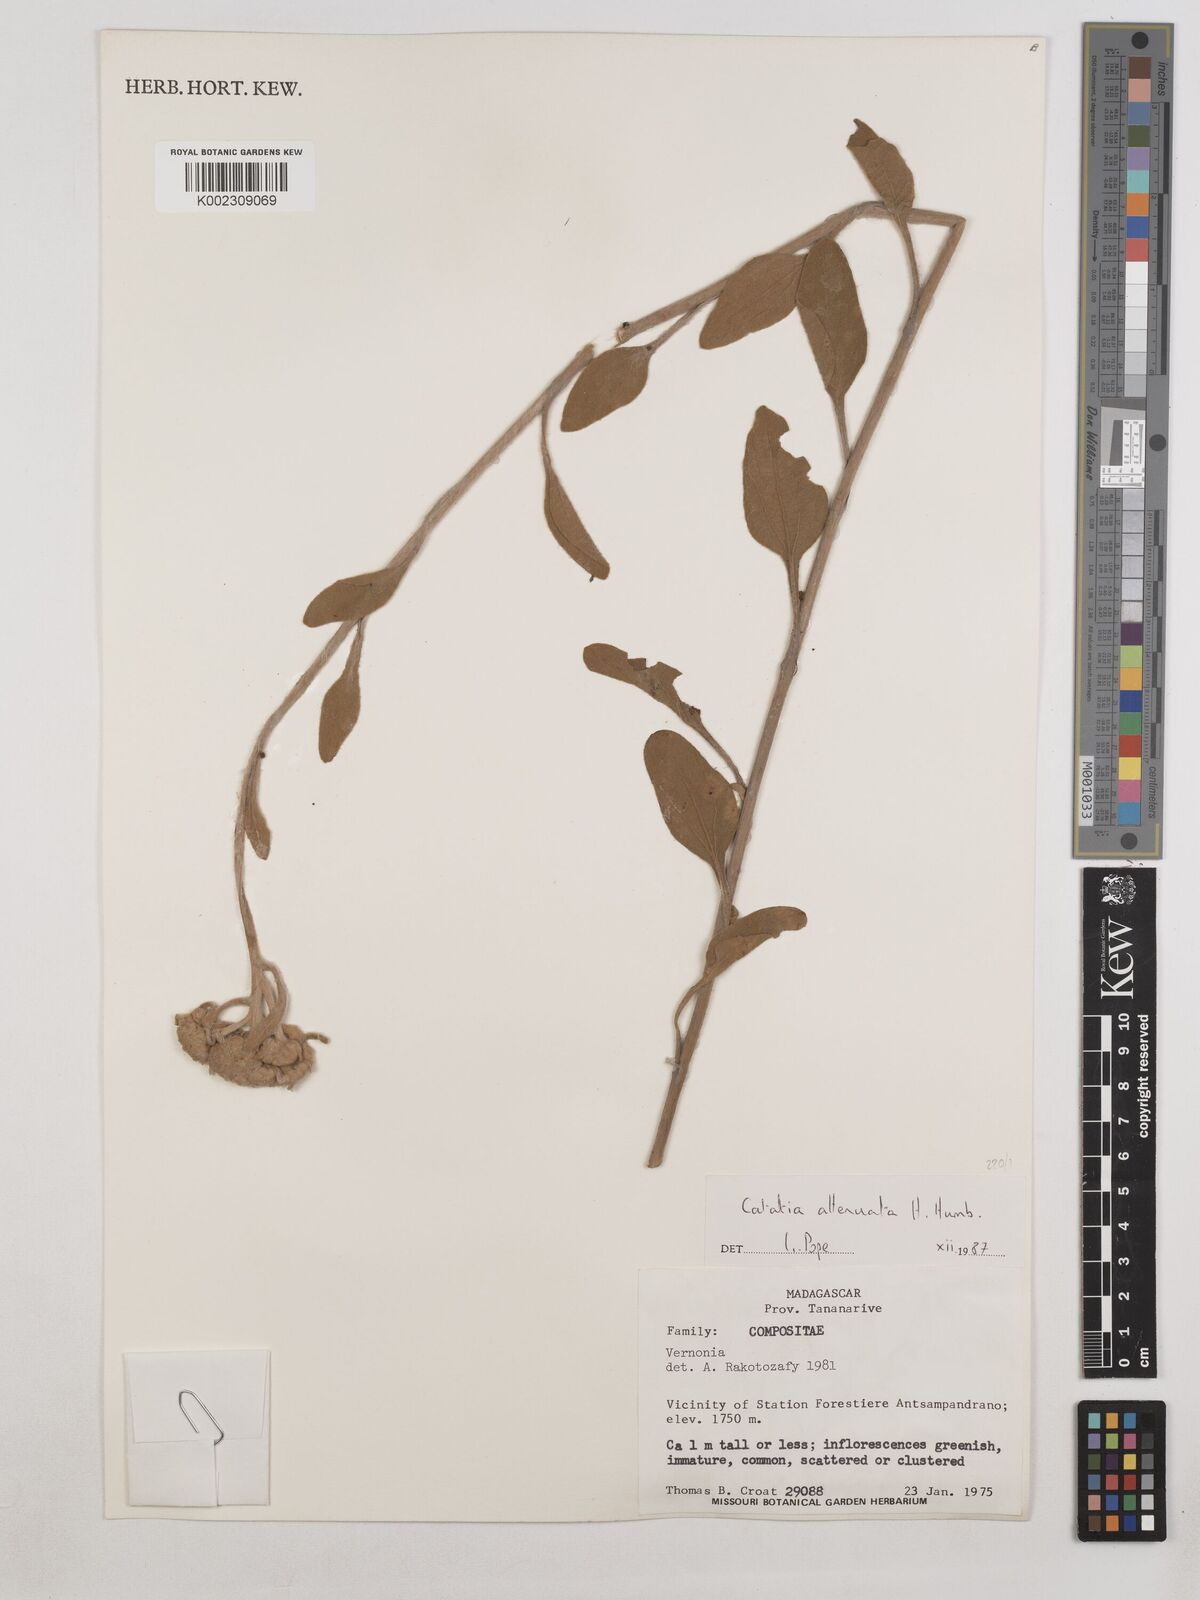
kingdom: Plantae
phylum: Tracheophyta
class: Magnoliopsida
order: Asterales
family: Asteraceae
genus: Catatia
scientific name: Catatia attenuata
